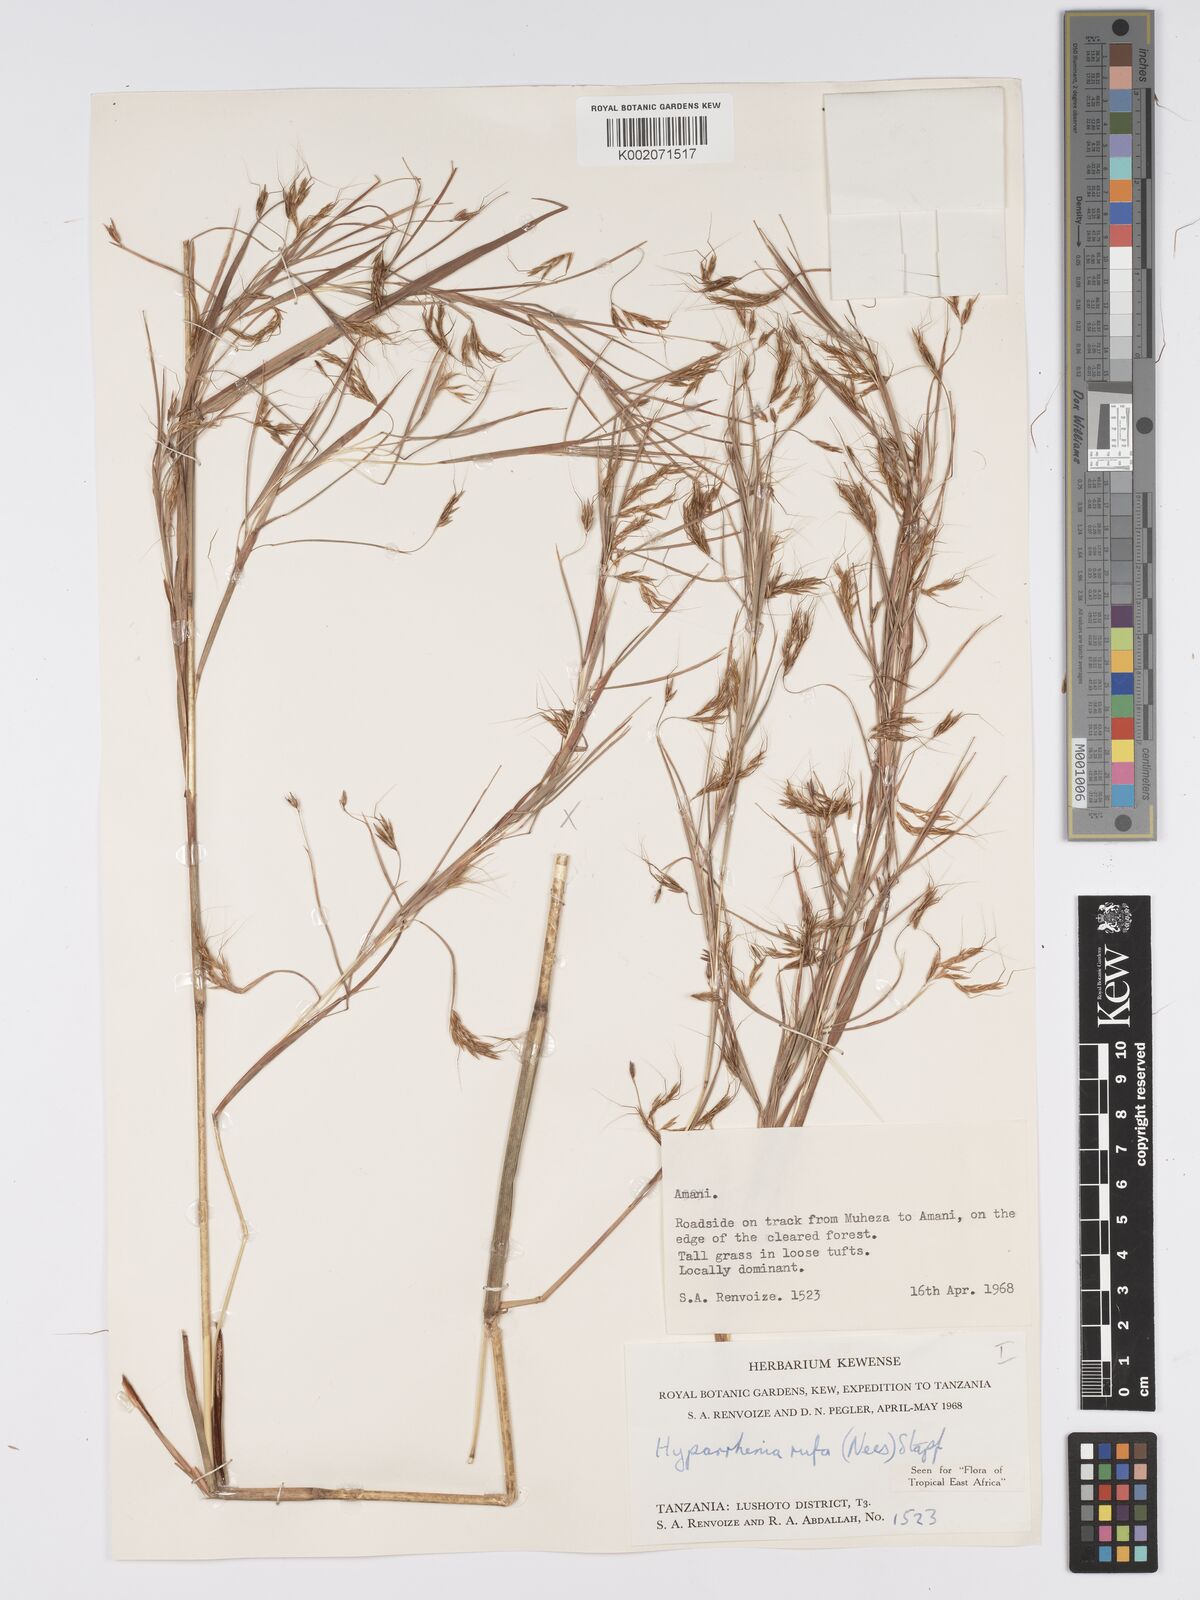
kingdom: Plantae
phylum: Tracheophyta
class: Liliopsida
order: Poales
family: Poaceae
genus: Hyparrhenia
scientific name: Hyparrhenia rufa
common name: Jaraguagrass
